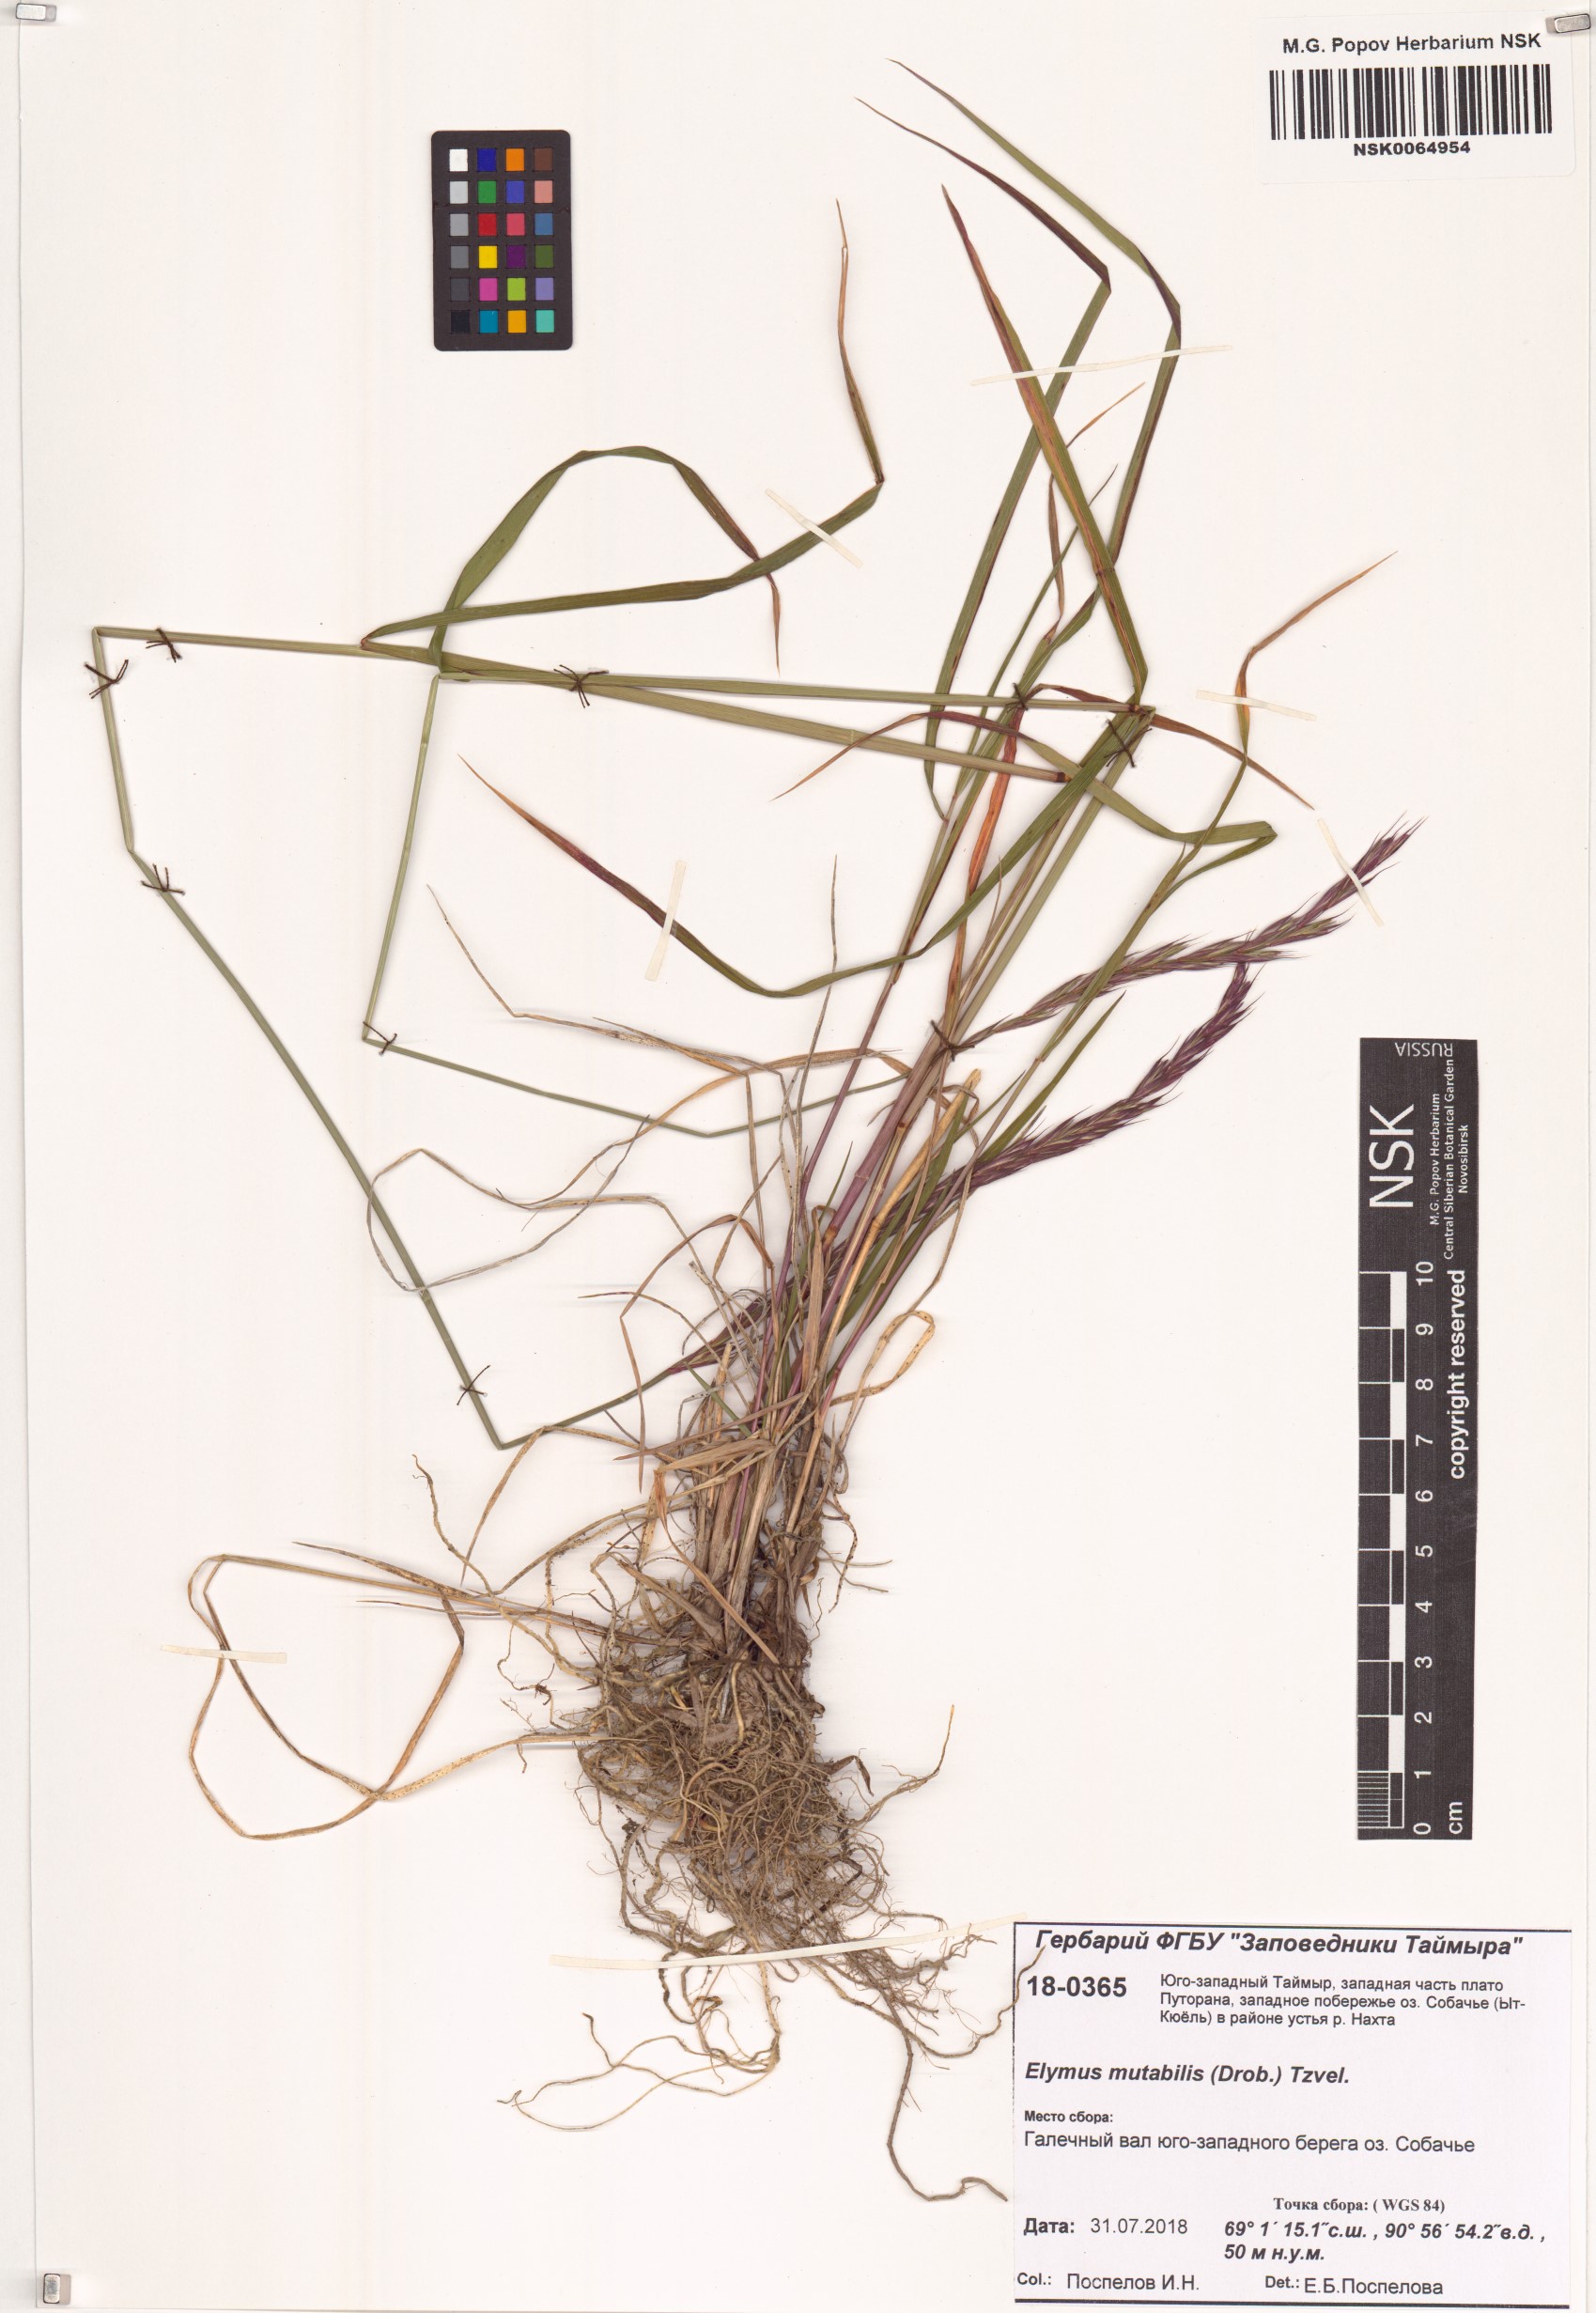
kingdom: Plantae
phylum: Tracheophyta
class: Liliopsida
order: Poales
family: Poaceae
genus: Elymus
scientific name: Elymus mutabilis
